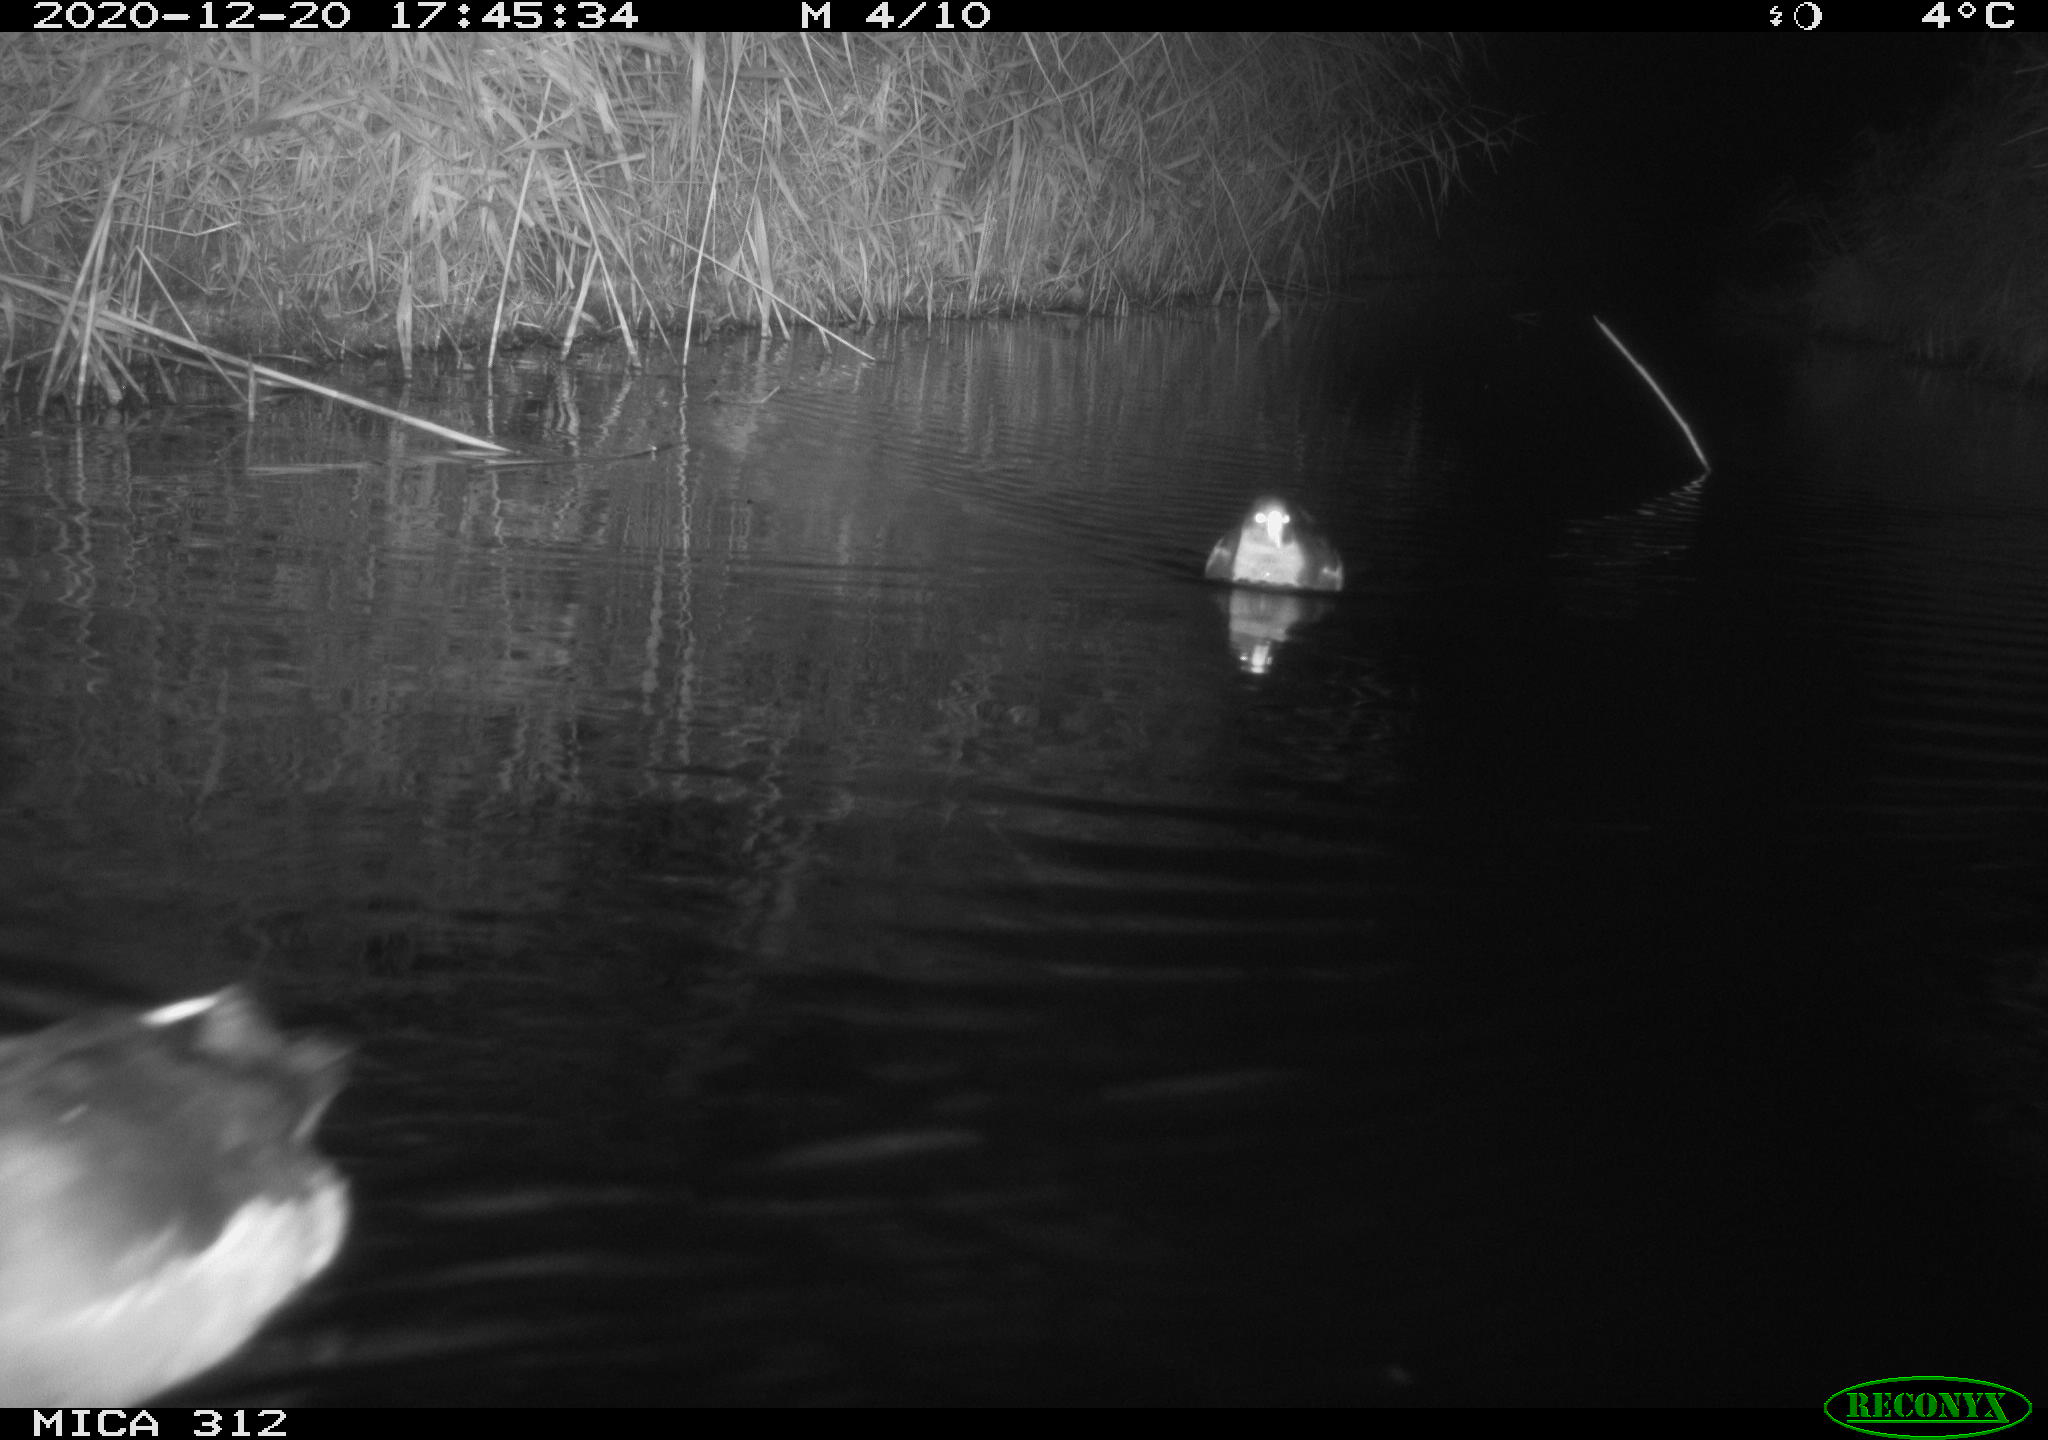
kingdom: Animalia
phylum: Chordata
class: Aves
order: Gruiformes
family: Rallidae
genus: Gallinula
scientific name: Gallinula chloropus
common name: Common moorhen
